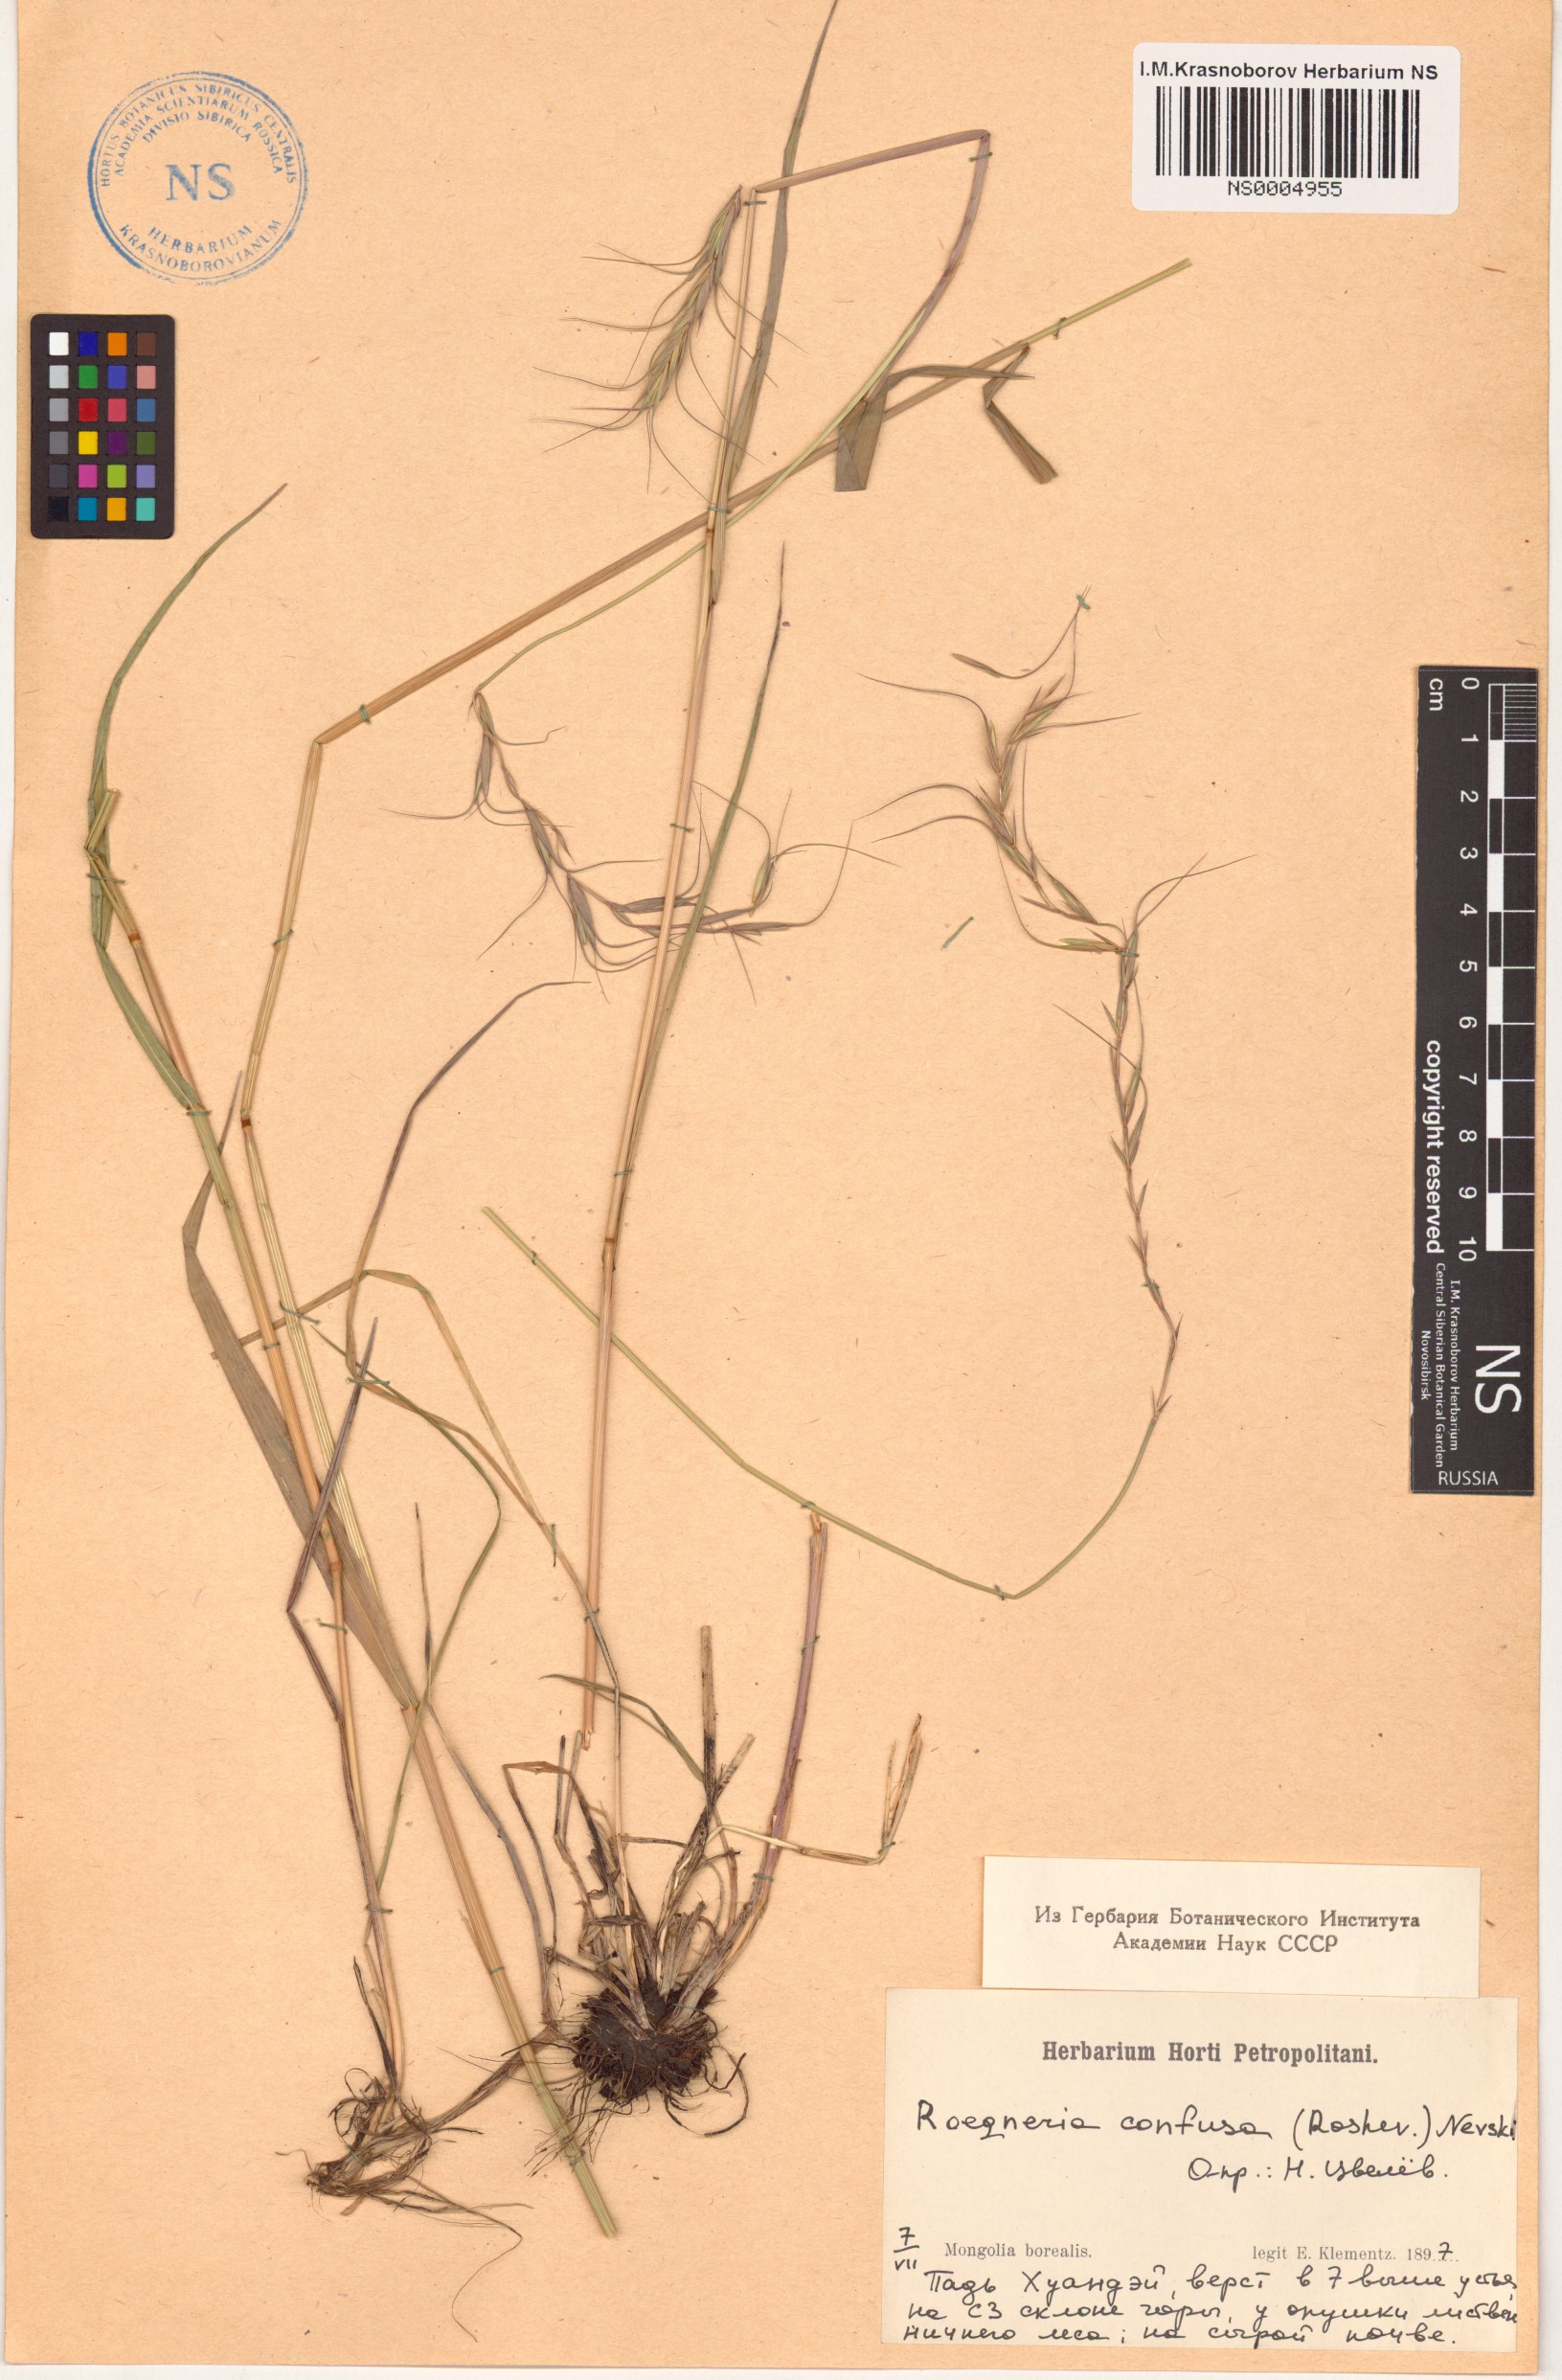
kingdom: Plantae
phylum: Tracheophyta
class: Liliopsida
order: Poales
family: Poaceae
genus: Elymus
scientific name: Elymus confusus
